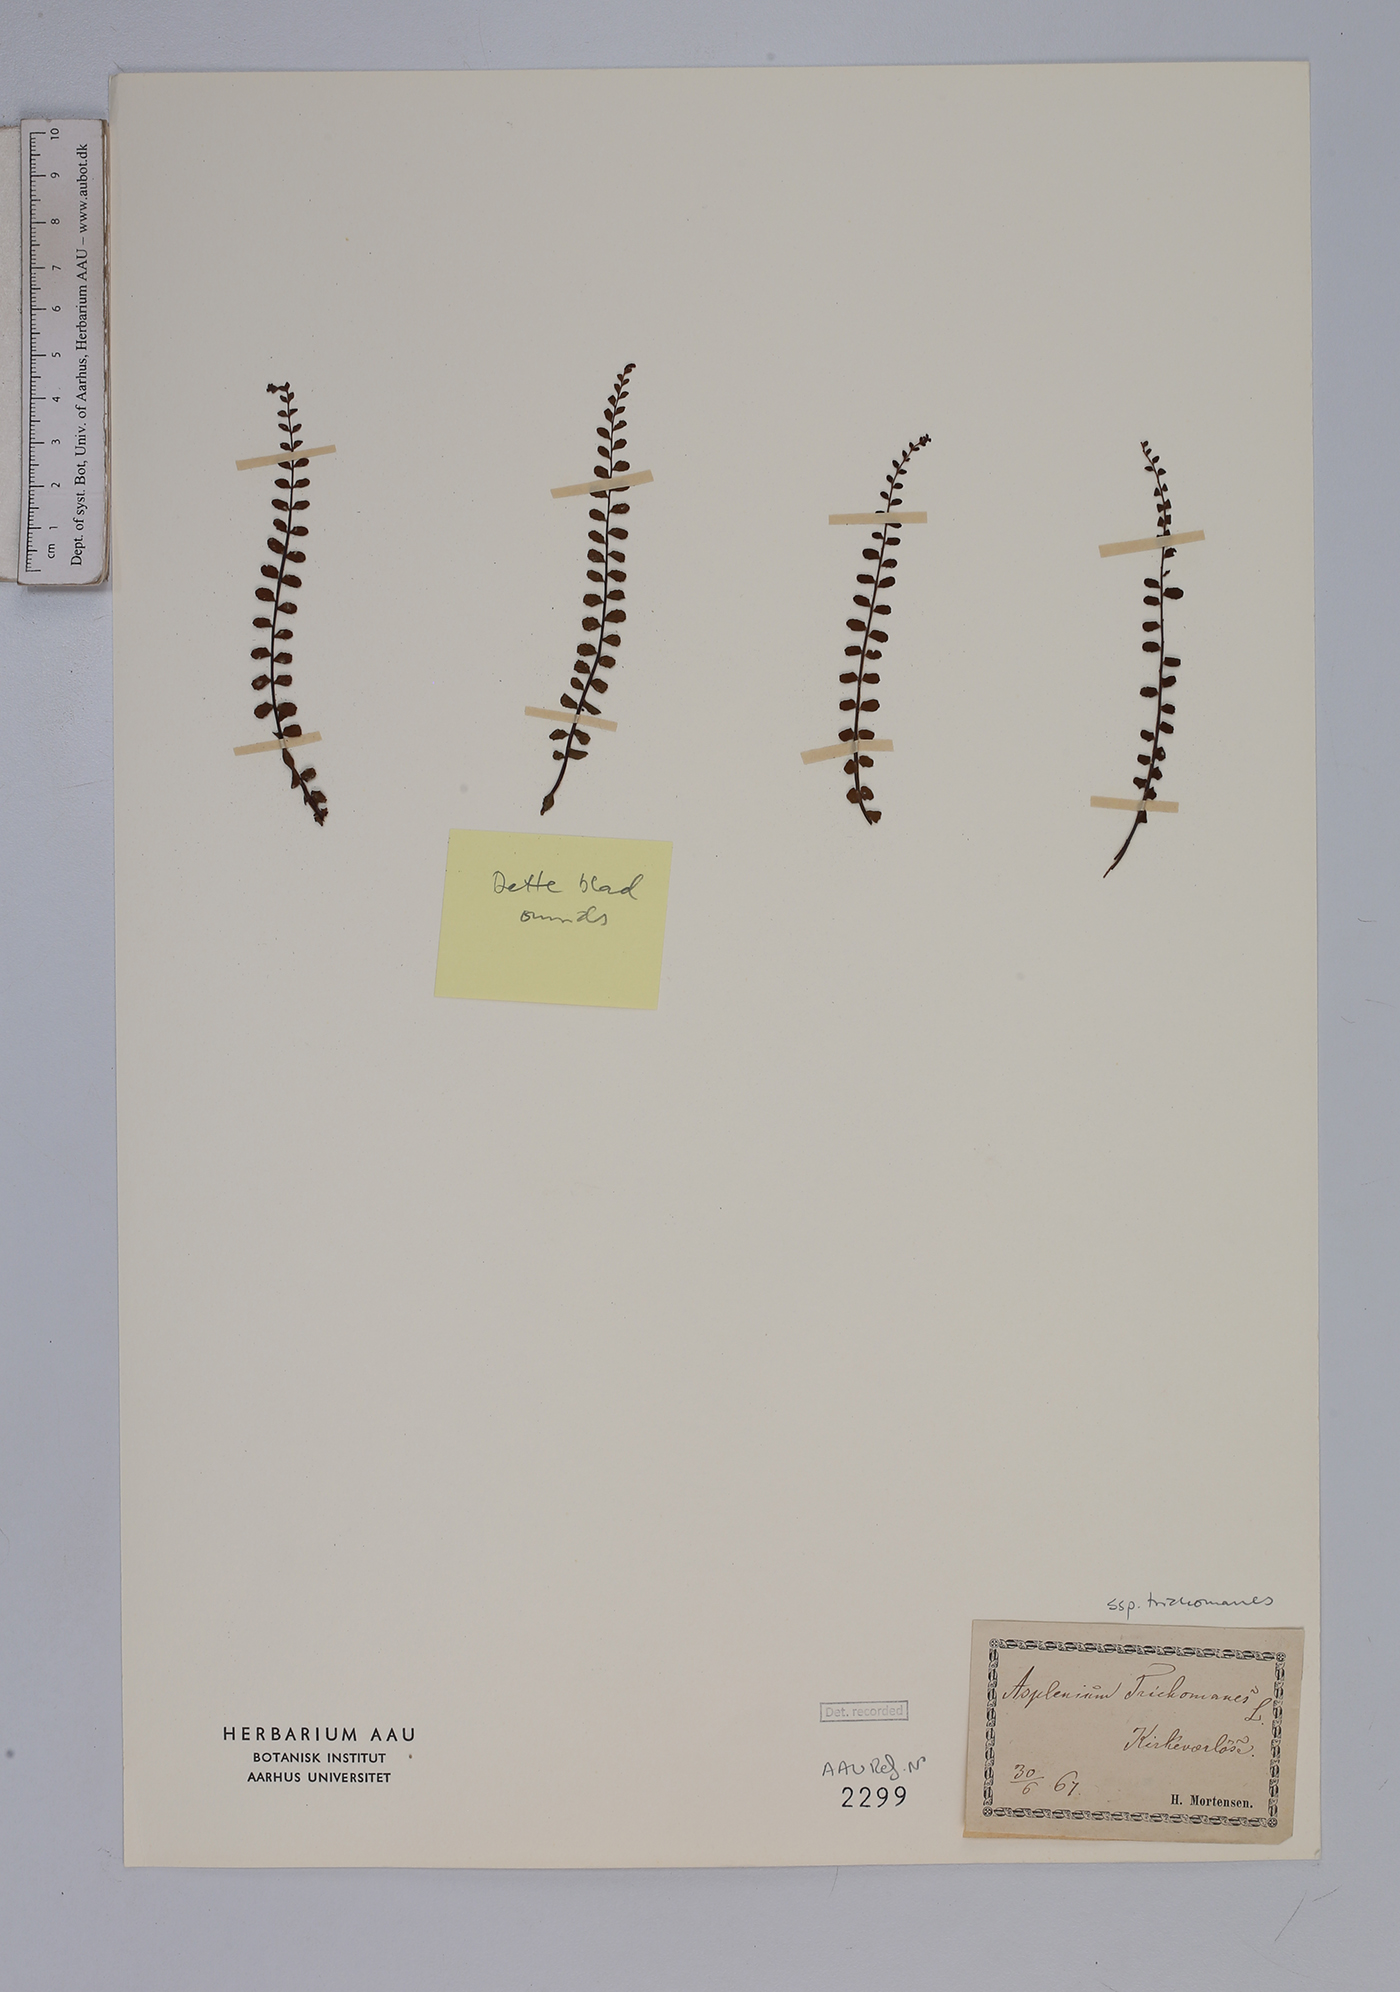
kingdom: Plantae
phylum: Tracheophyta
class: Polypodiopsida
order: Polypodiales
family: Aspleniaceae
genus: Asplenium
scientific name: Asplenium trichomanes
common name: Maidenhair spleenwort
